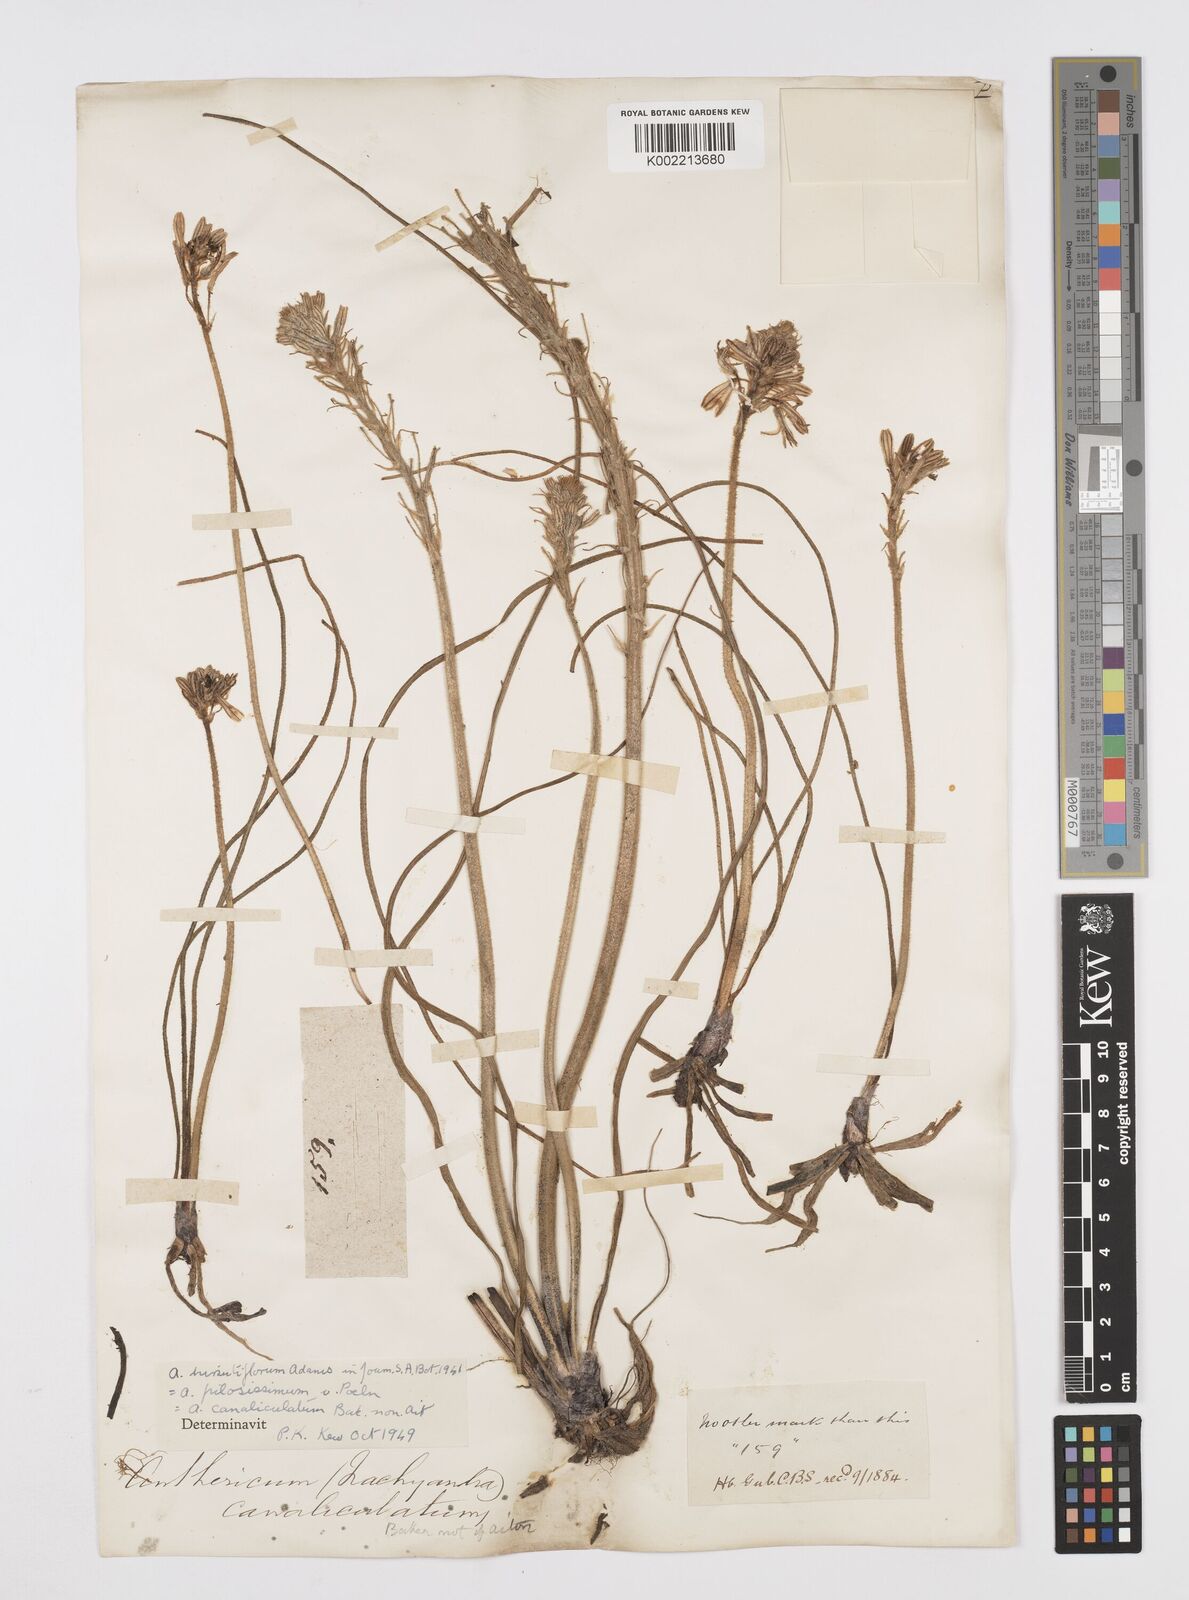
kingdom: Plantae
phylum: Tracheophyta
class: Liliopsida
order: Asparagales
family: Asphodelaceae
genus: Trachyandra
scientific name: Trachyandra hirsutiflora
